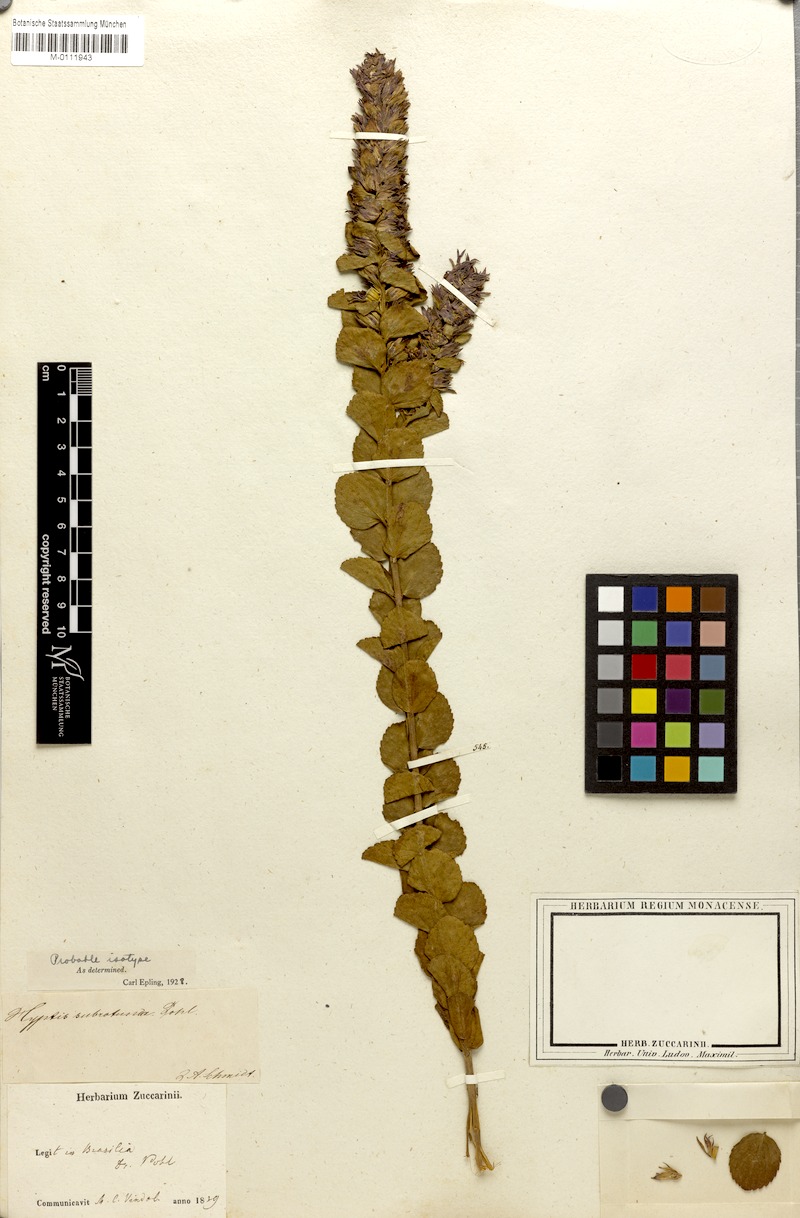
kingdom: Plantae
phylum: Tracheophyta
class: Magnoliopsida
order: Lamiales
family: Lamiaceae
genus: Cantinoa
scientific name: Cantinoa subrotunda
